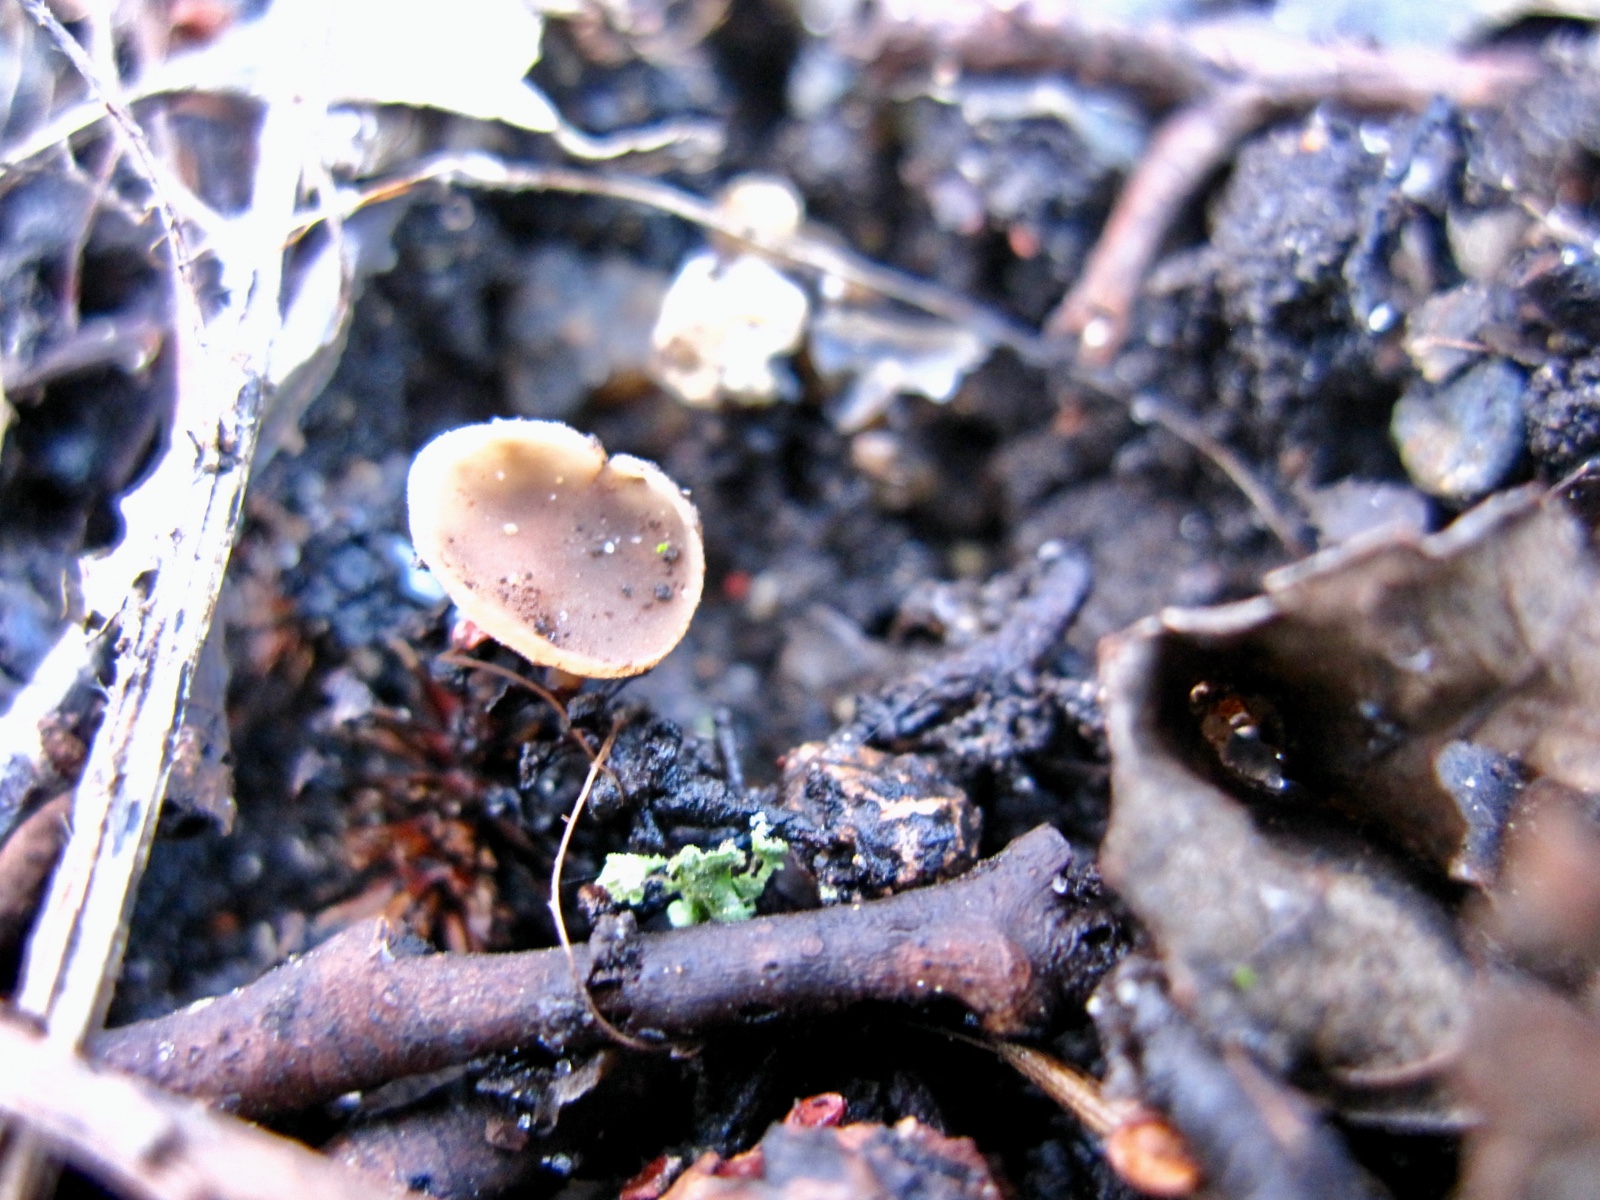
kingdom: Fungi
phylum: Ascomycota
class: Leotiomycetes
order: Helotiales
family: Sclerotiniaceae
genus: Ciboria
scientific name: Ciboria
